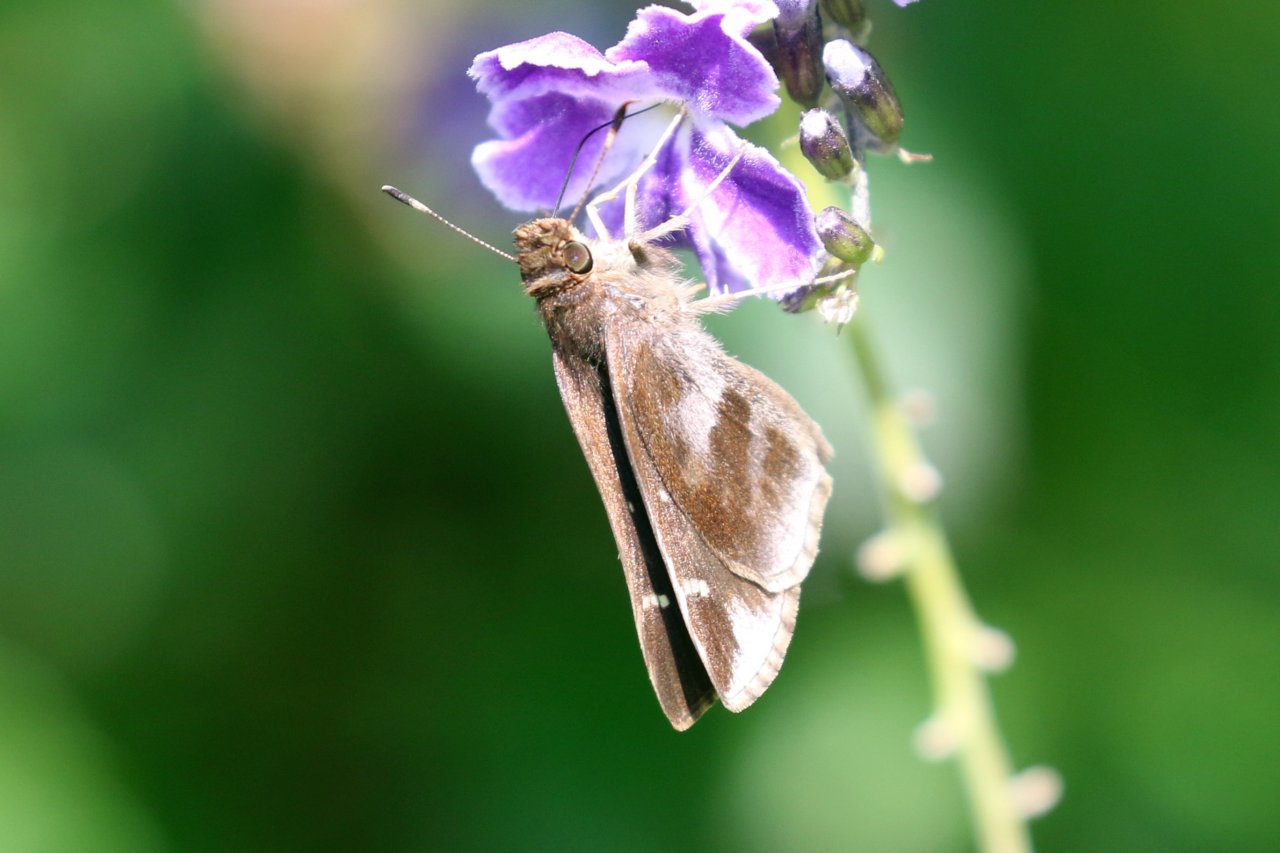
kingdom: Animalia
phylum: Arthropoda
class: Insecta
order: Lepidoptera
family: Hesperiidae
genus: Lerema
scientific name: Lerema accius
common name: Clouded Skipper
